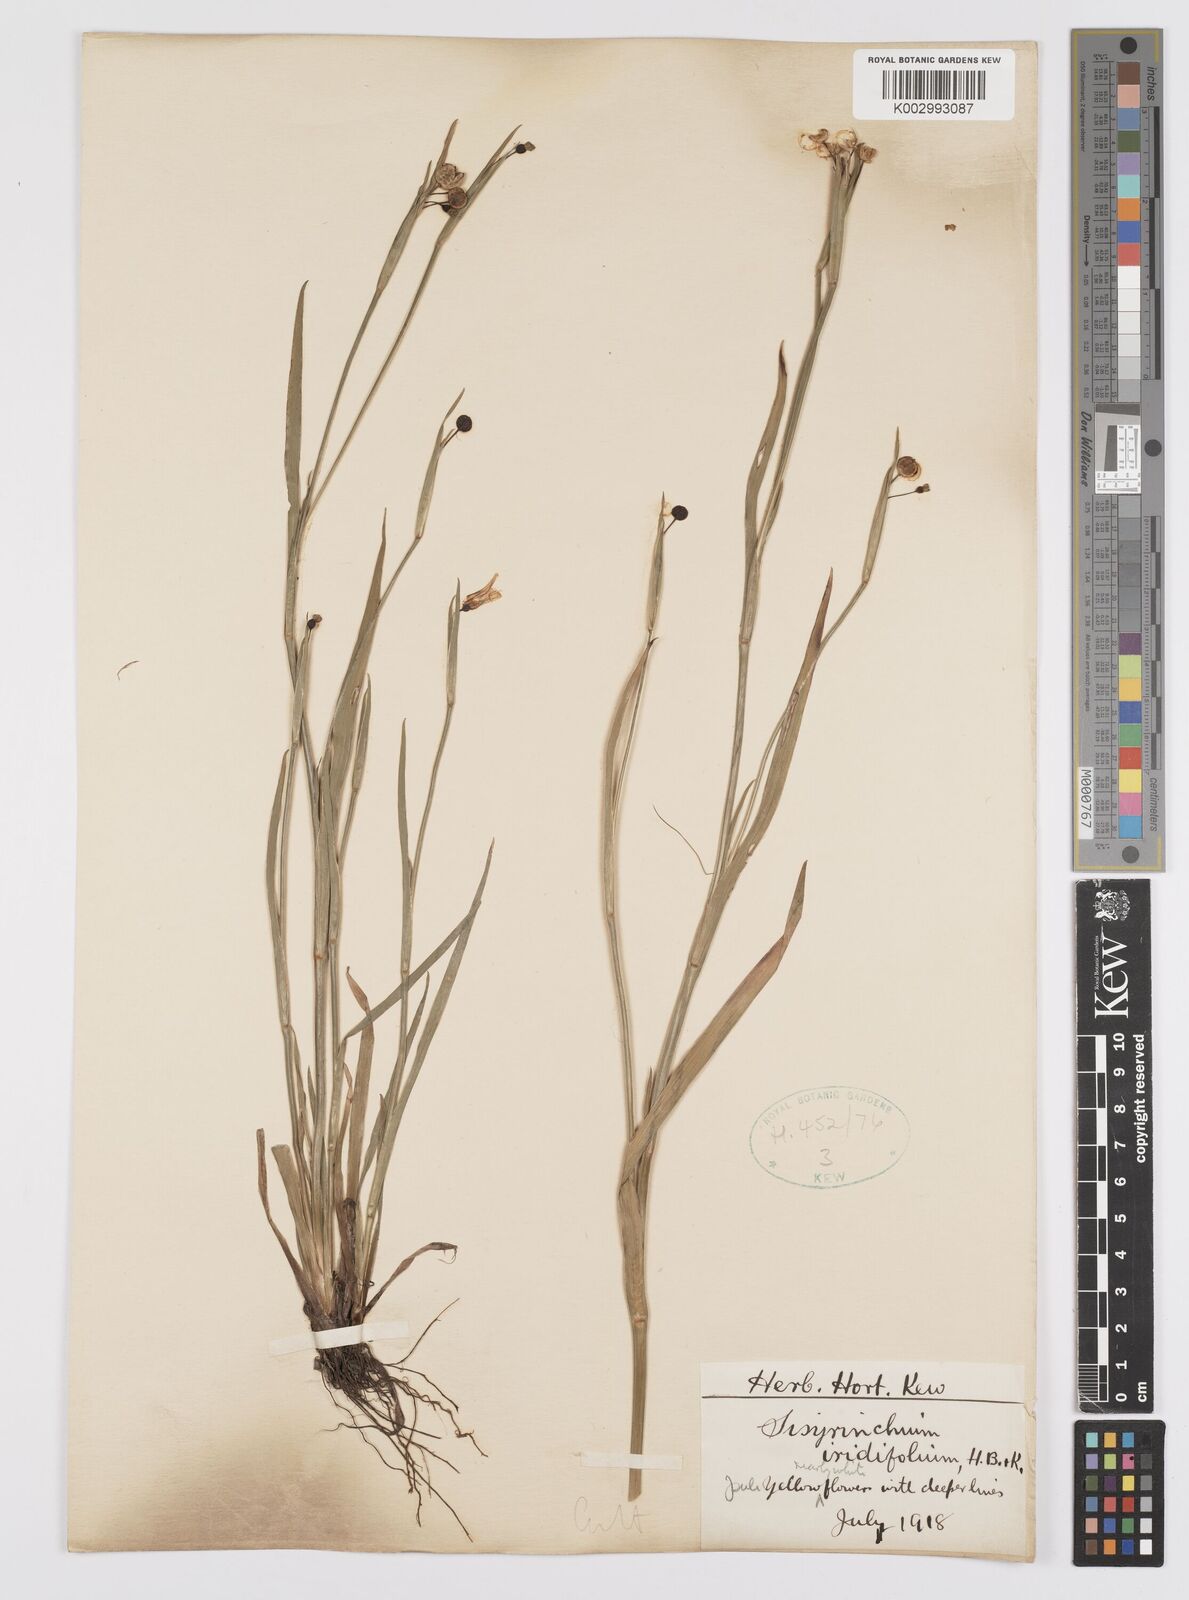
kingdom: Plantae
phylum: Tracheophyta
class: Liliopsida
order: Asparagales
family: Iridaceae
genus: Sisyrinchium
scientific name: Sisyrinchium micranthum
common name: Bermuda pigroot
